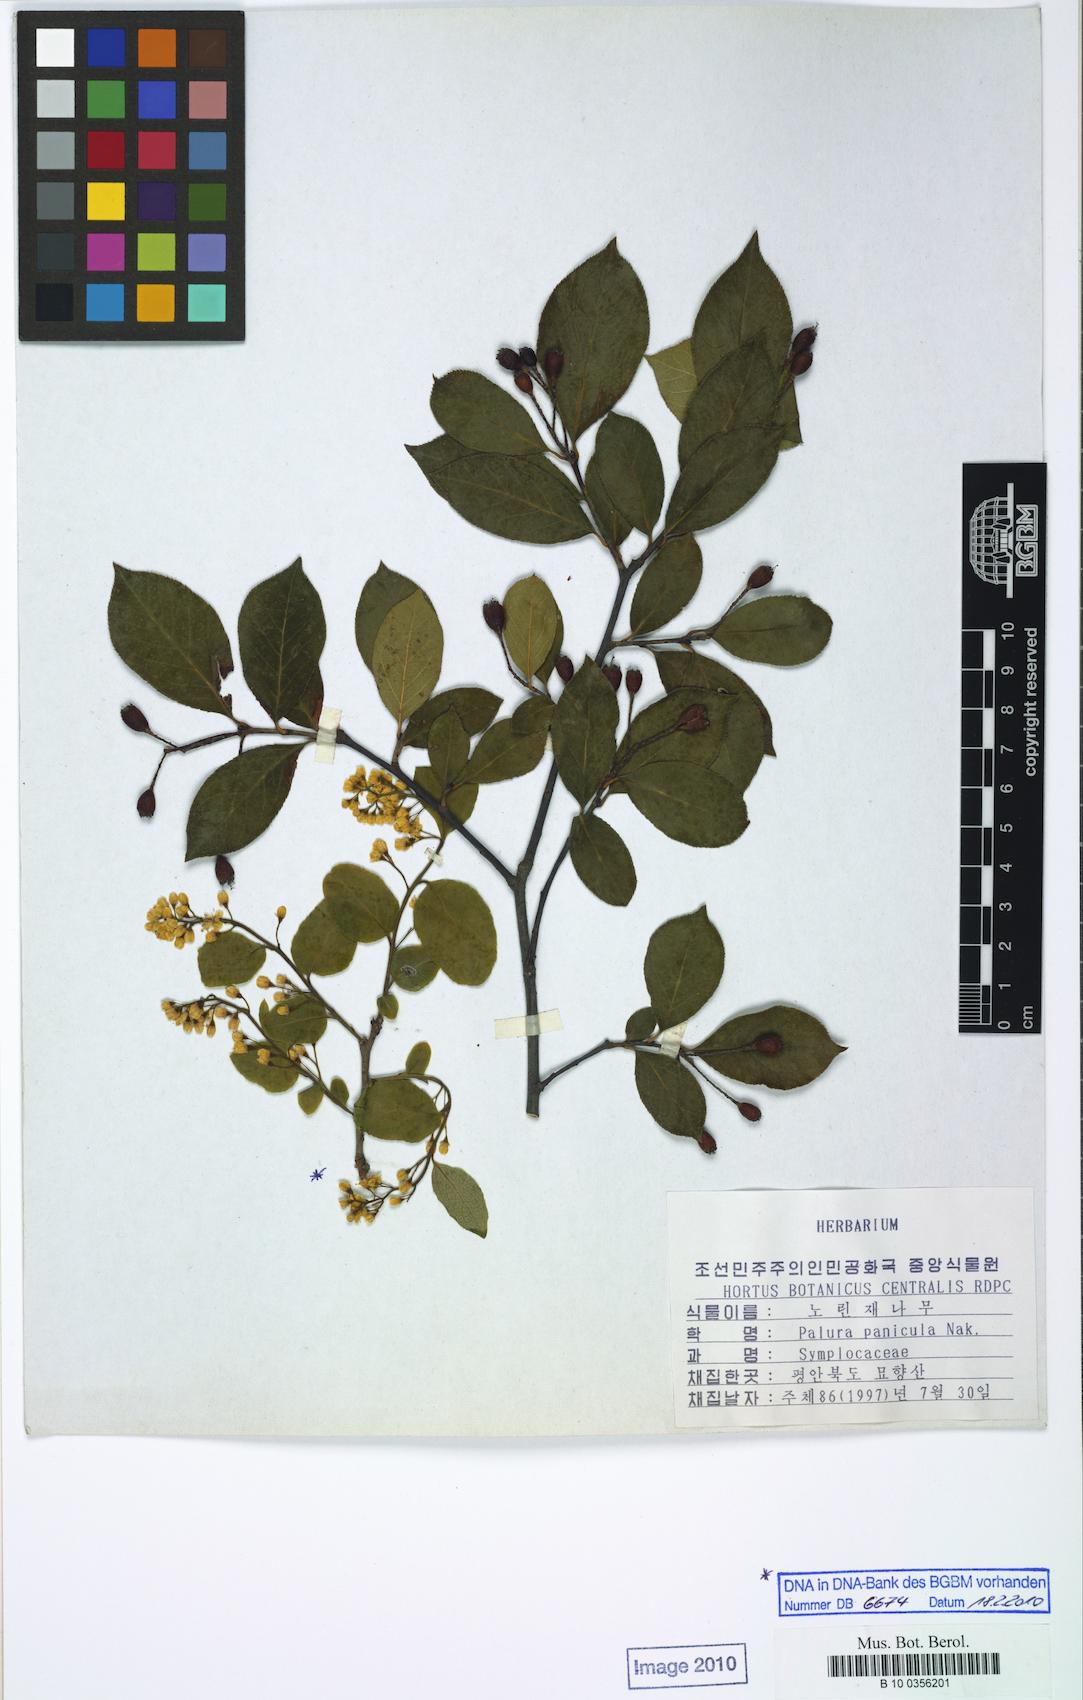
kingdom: Plantae
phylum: Tracheophyta
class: Magnoliopsida
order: Ericales
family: Symplocaceae
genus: Symplocos
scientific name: Symplocos paniculata
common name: Sapphire-berry
